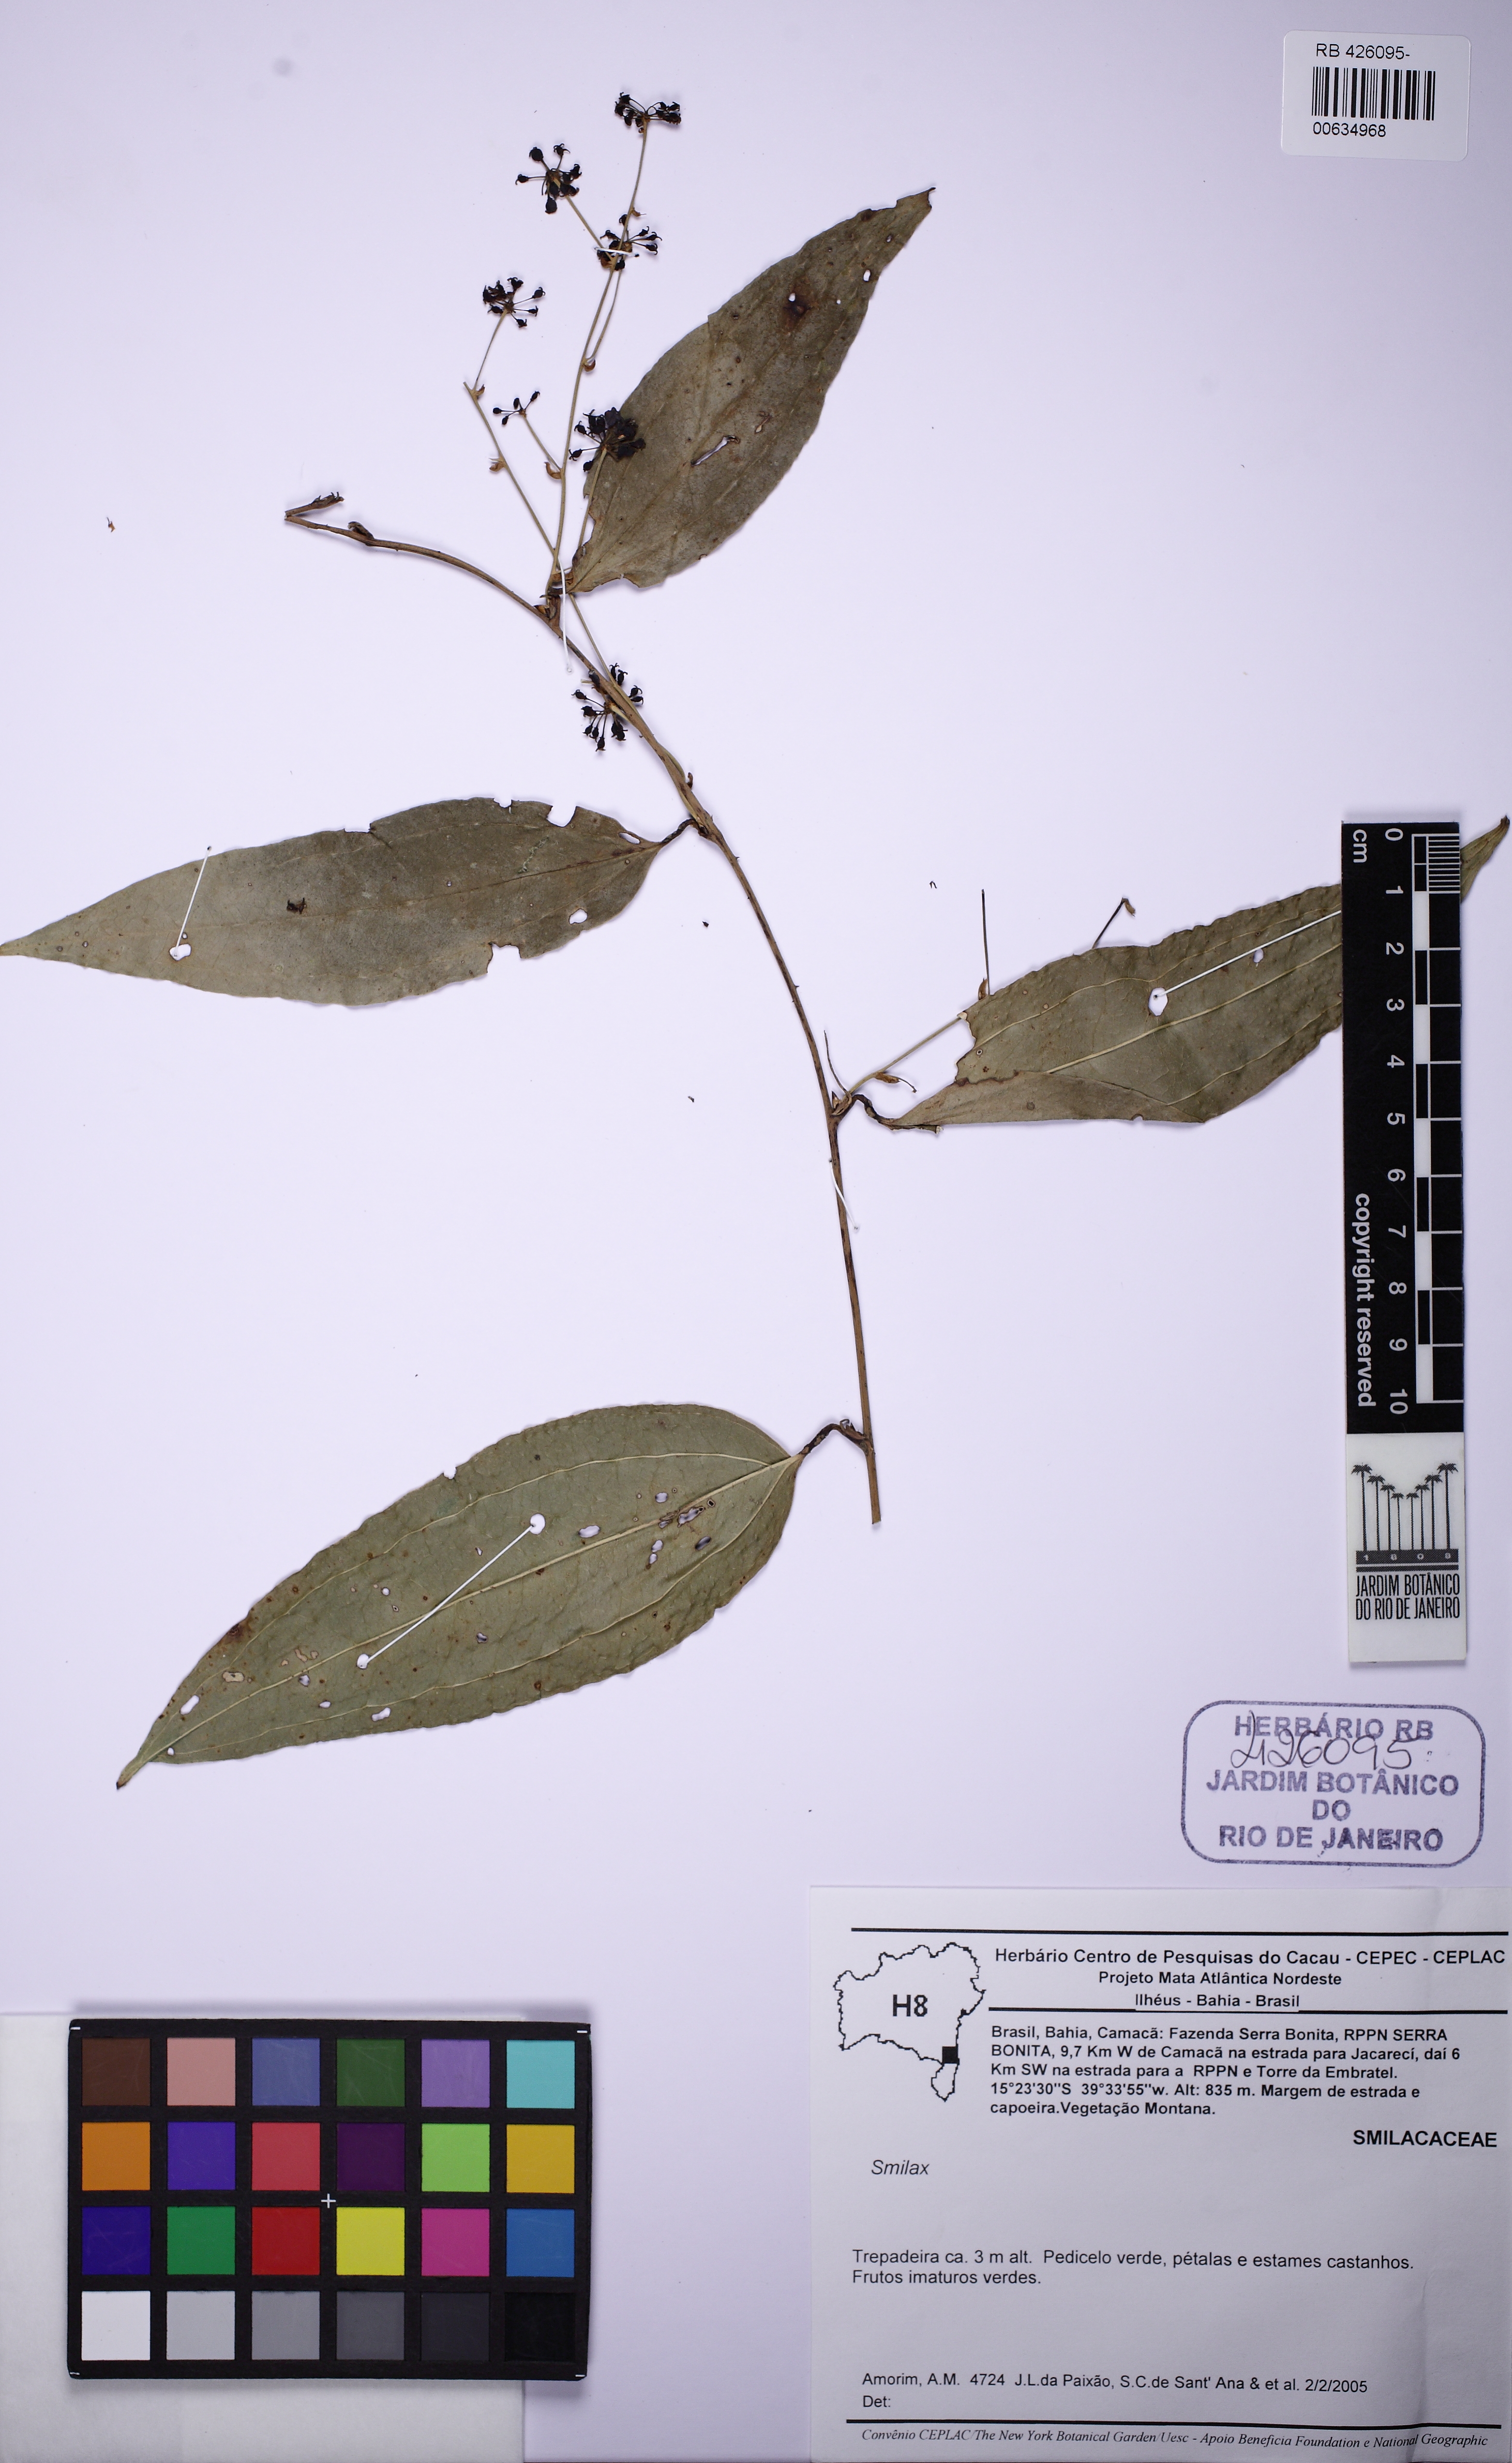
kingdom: Plantae
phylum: Tracheophyta
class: Liliopsida
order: Liliales
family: Smilacaceae
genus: Smilax
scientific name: Smilax
